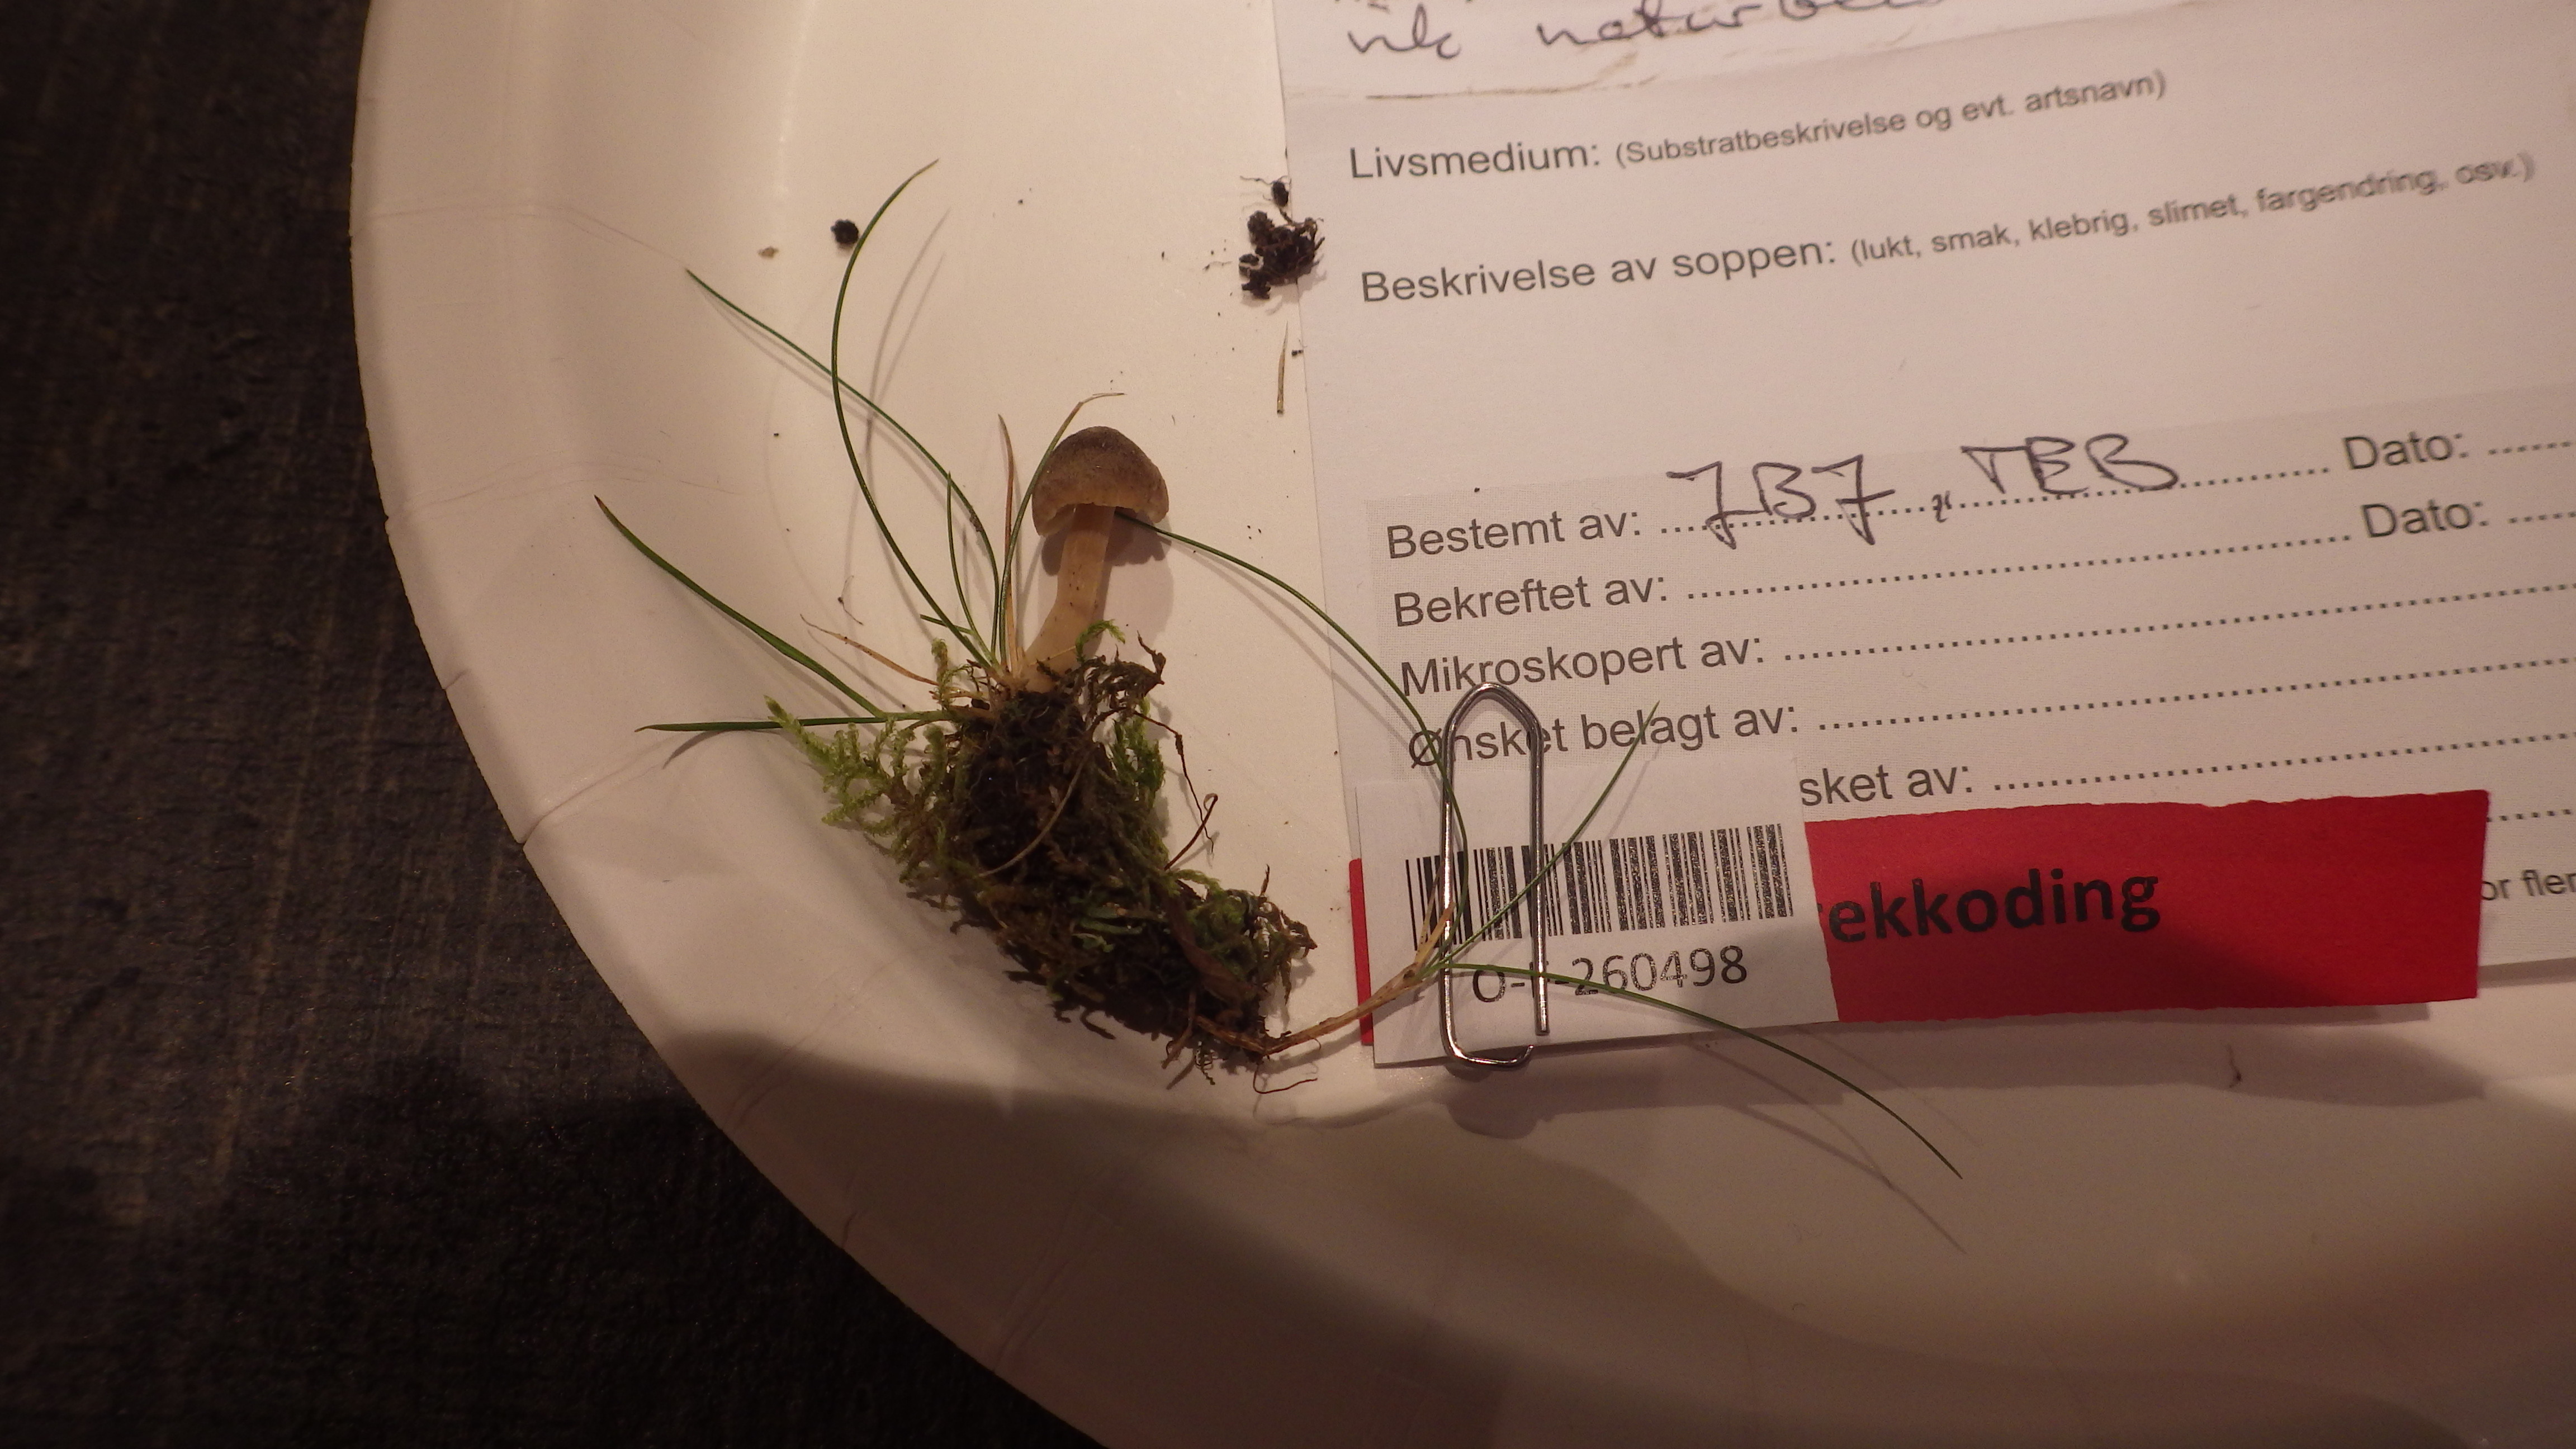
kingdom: Fungi
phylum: Basidiomycota
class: Agaricomycetes
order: Agaricales
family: Clavariaceae
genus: Hodophilus
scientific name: Hodophilus
